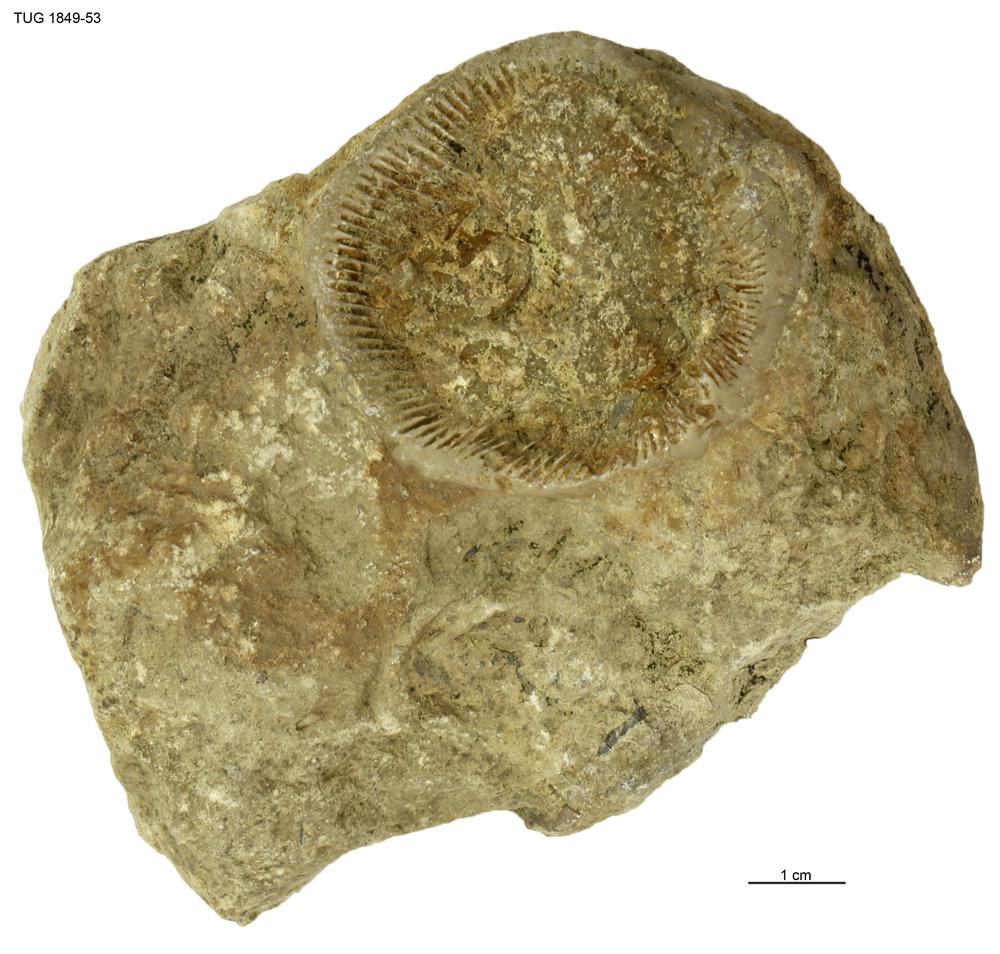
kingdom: Animalia
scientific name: Animalia
